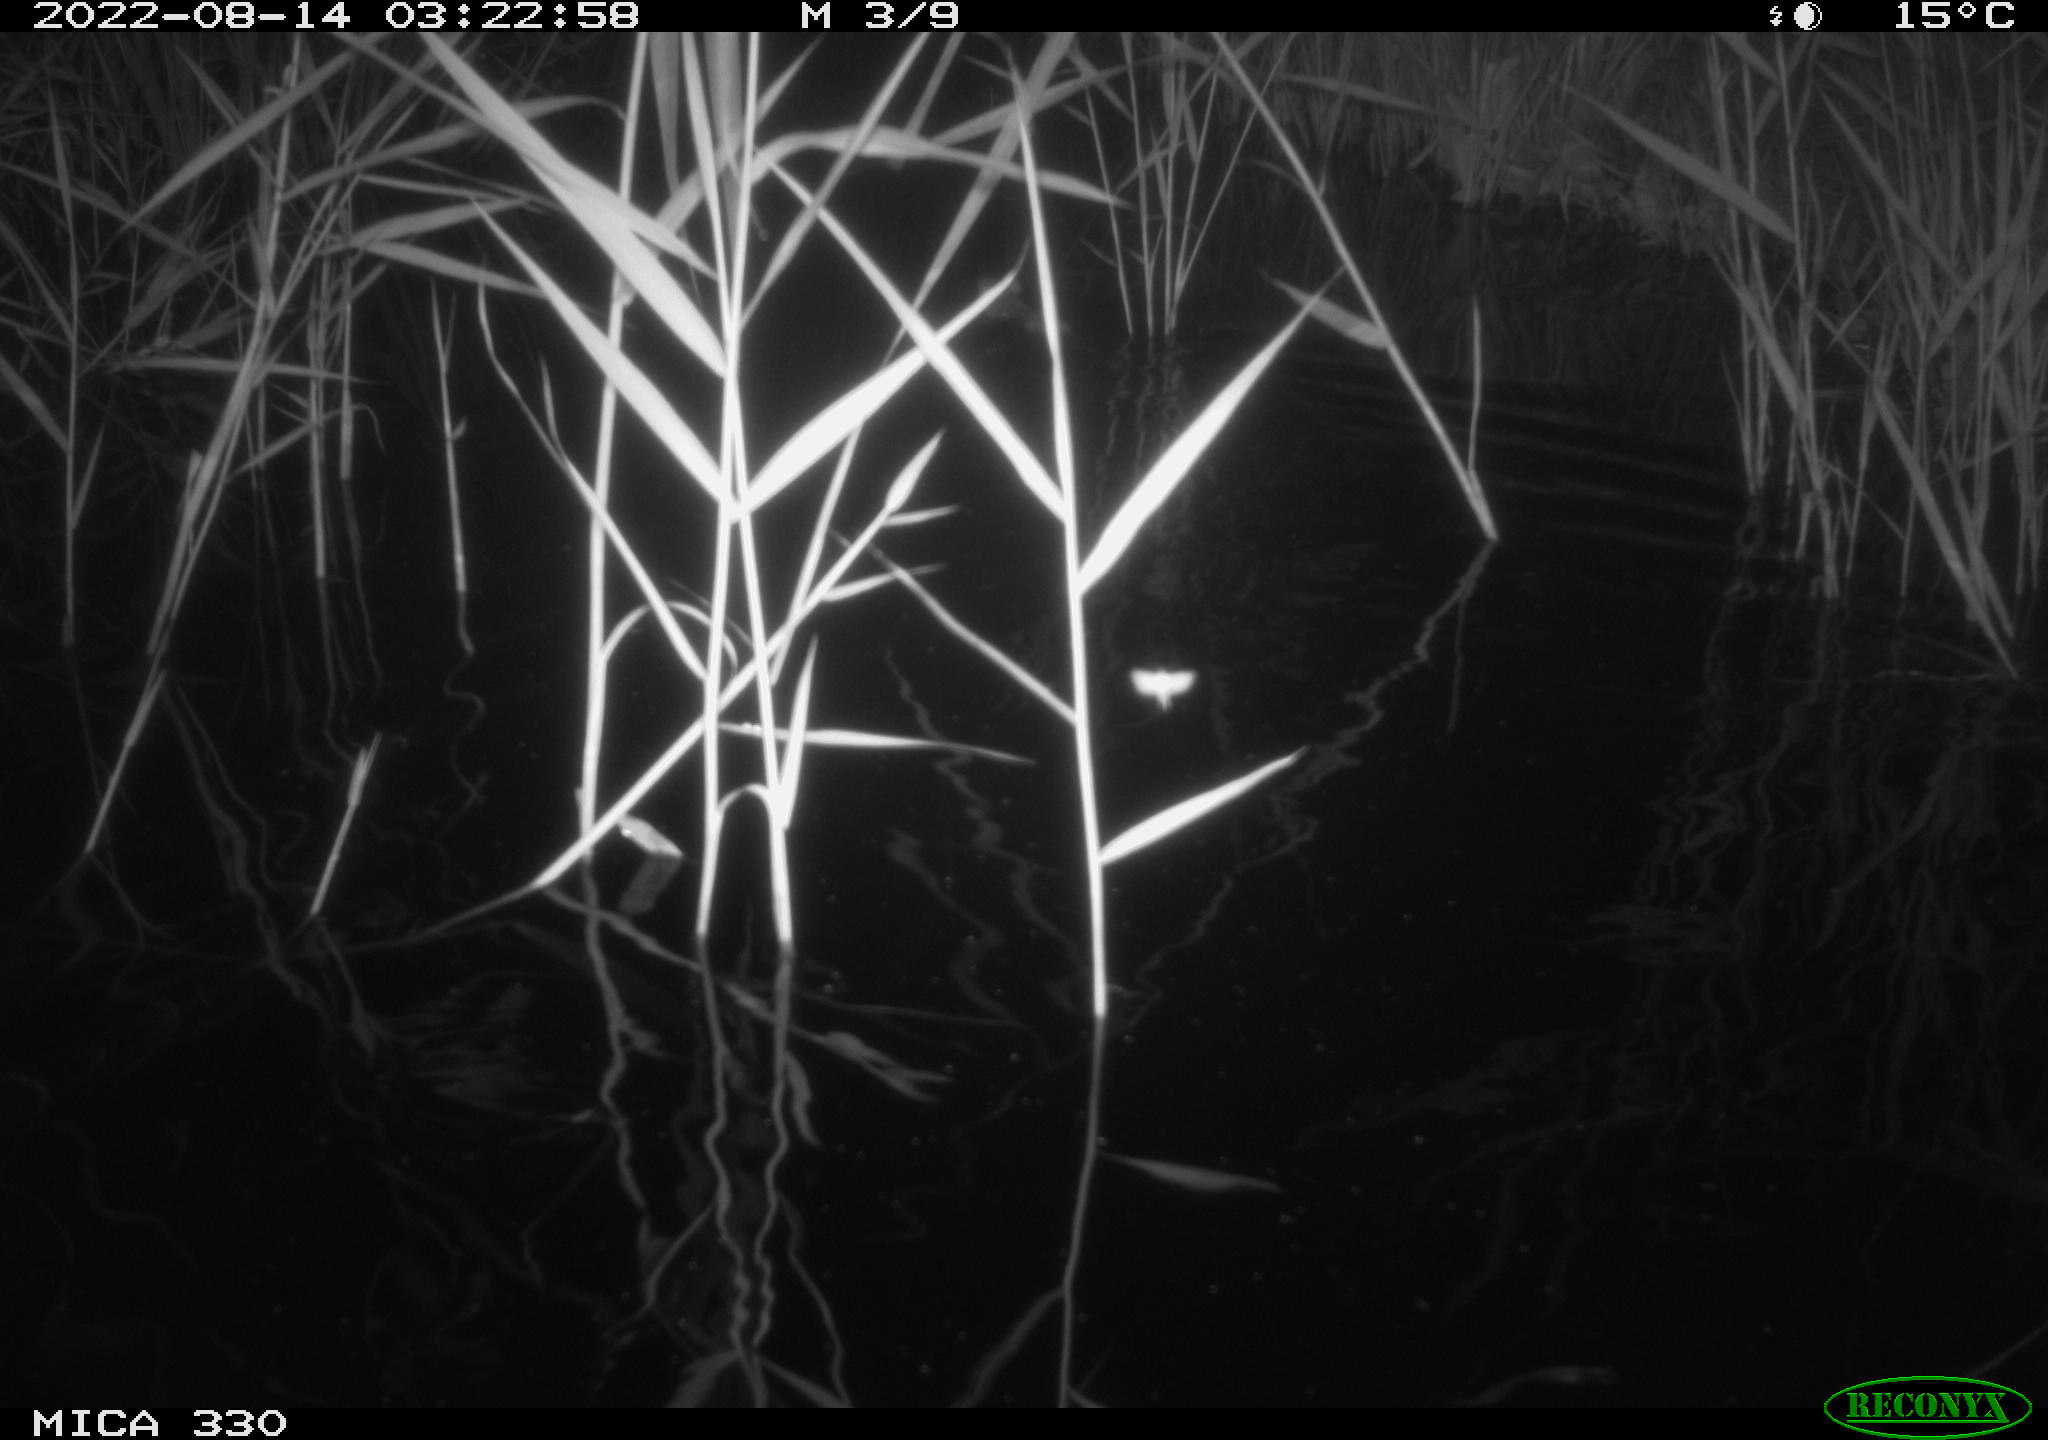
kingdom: Animalia
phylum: Chordata
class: Mammalia
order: Rodentia
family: Muridae
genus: Rattus
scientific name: Rattus norvegicus
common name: Brown rat
